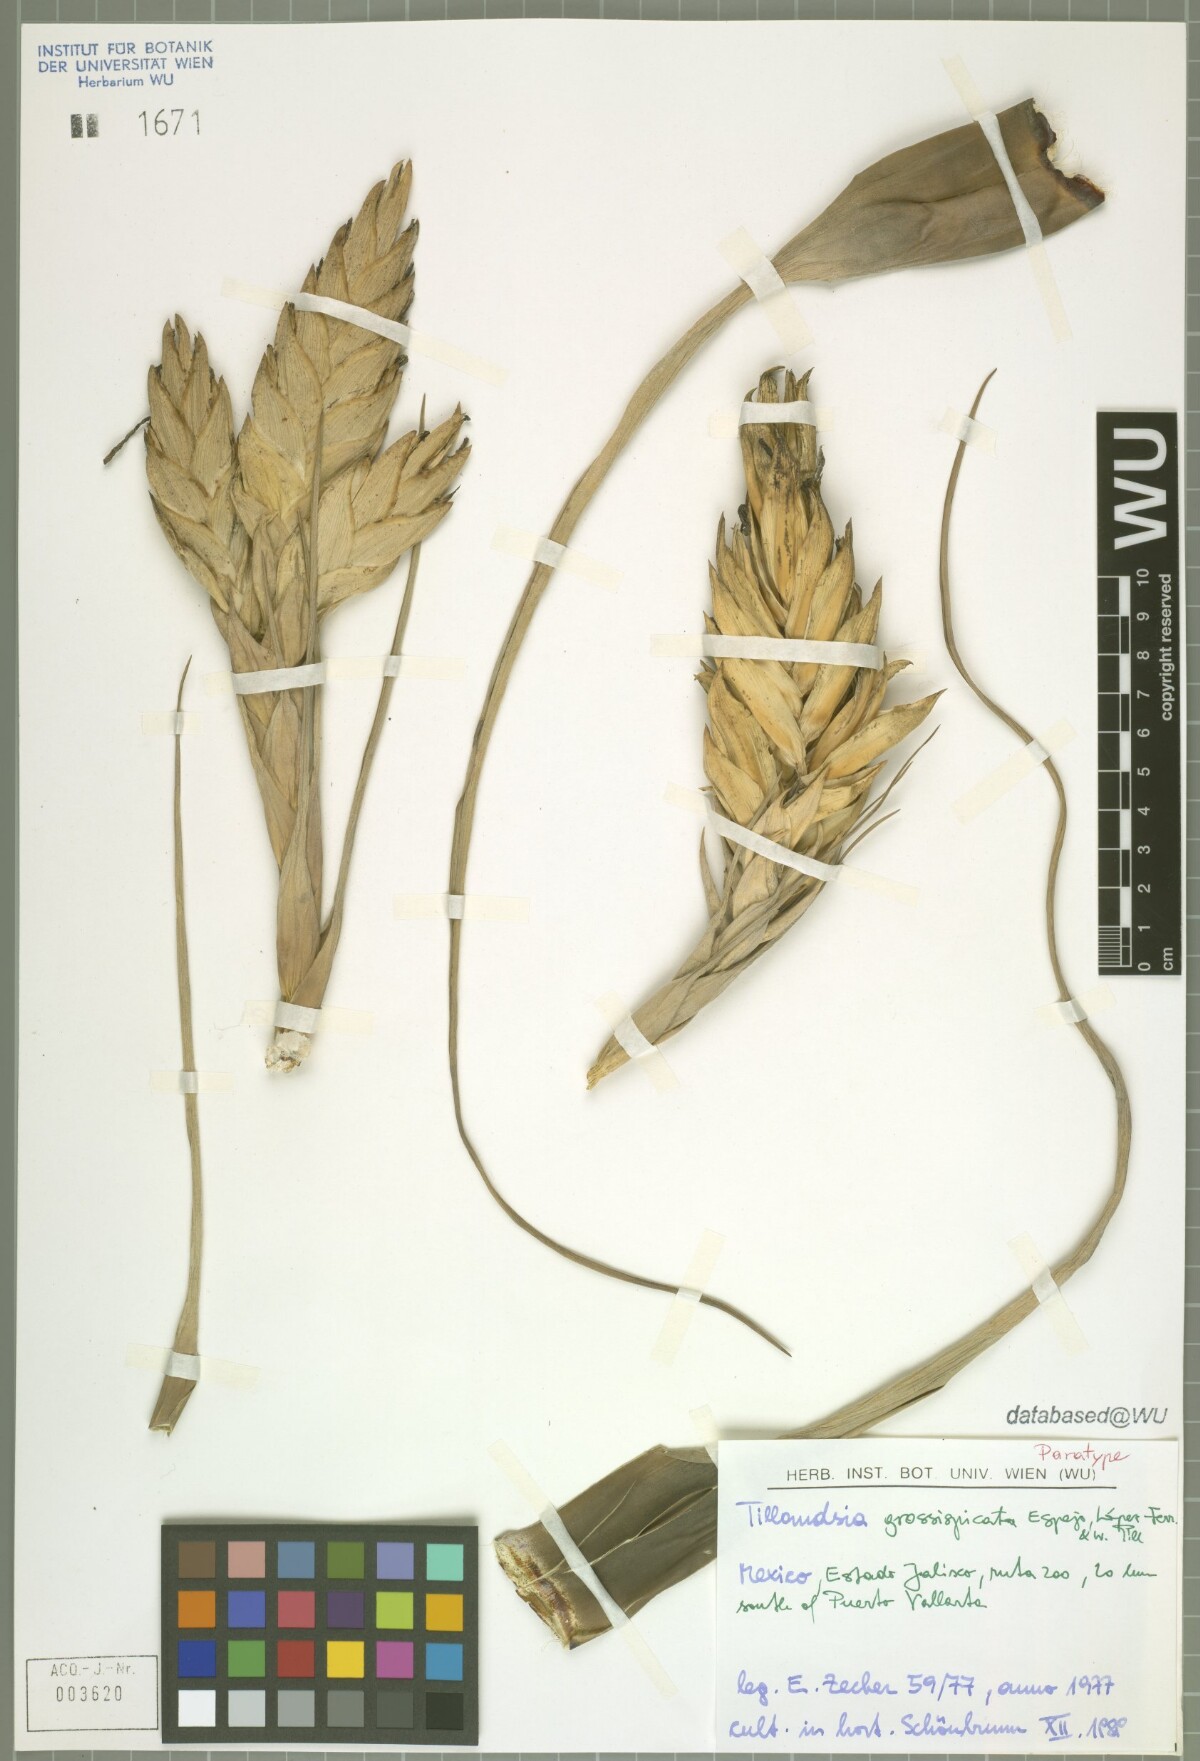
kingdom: Plantae
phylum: Tracheophyta
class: Liliopsida
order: Poales
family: Bromeliaceae
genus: Tillandsia
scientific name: Tillandsia grossispicata
